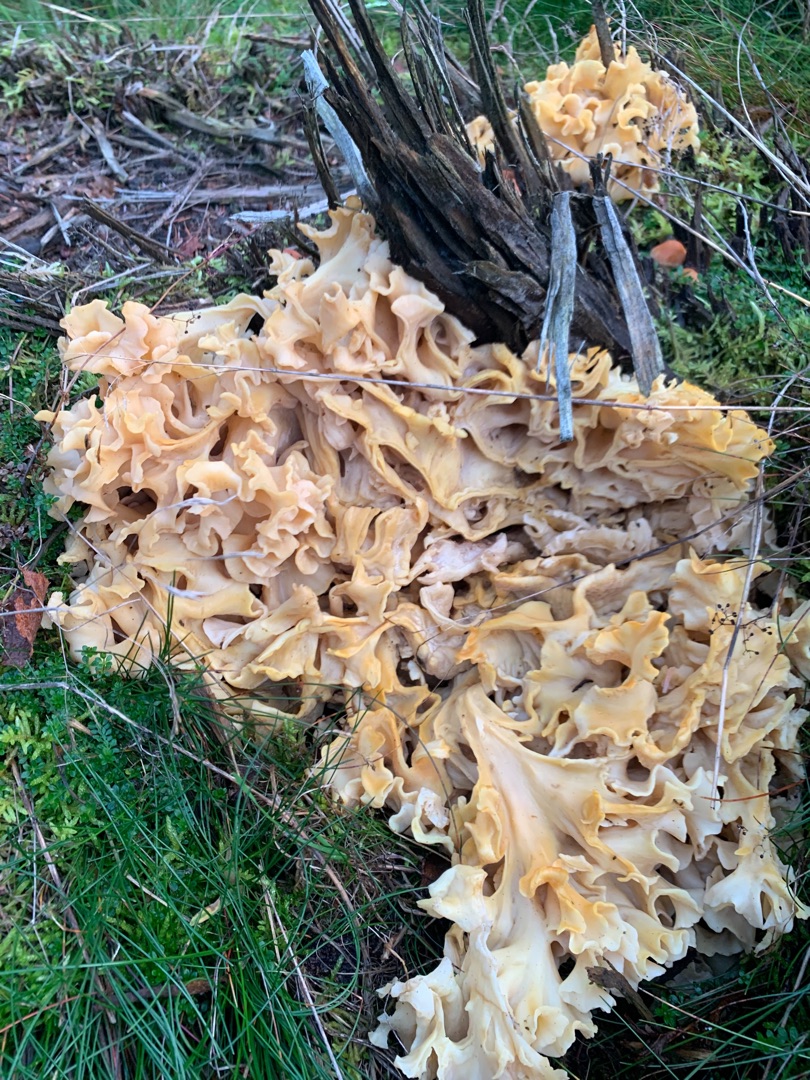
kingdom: Fungi
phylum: Basidiomycota
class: Agaricomycetes
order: Polyporales
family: Sparassidaceae
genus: Sparassis
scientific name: Sparassis crispa
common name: Kruset blomkålssvamp
